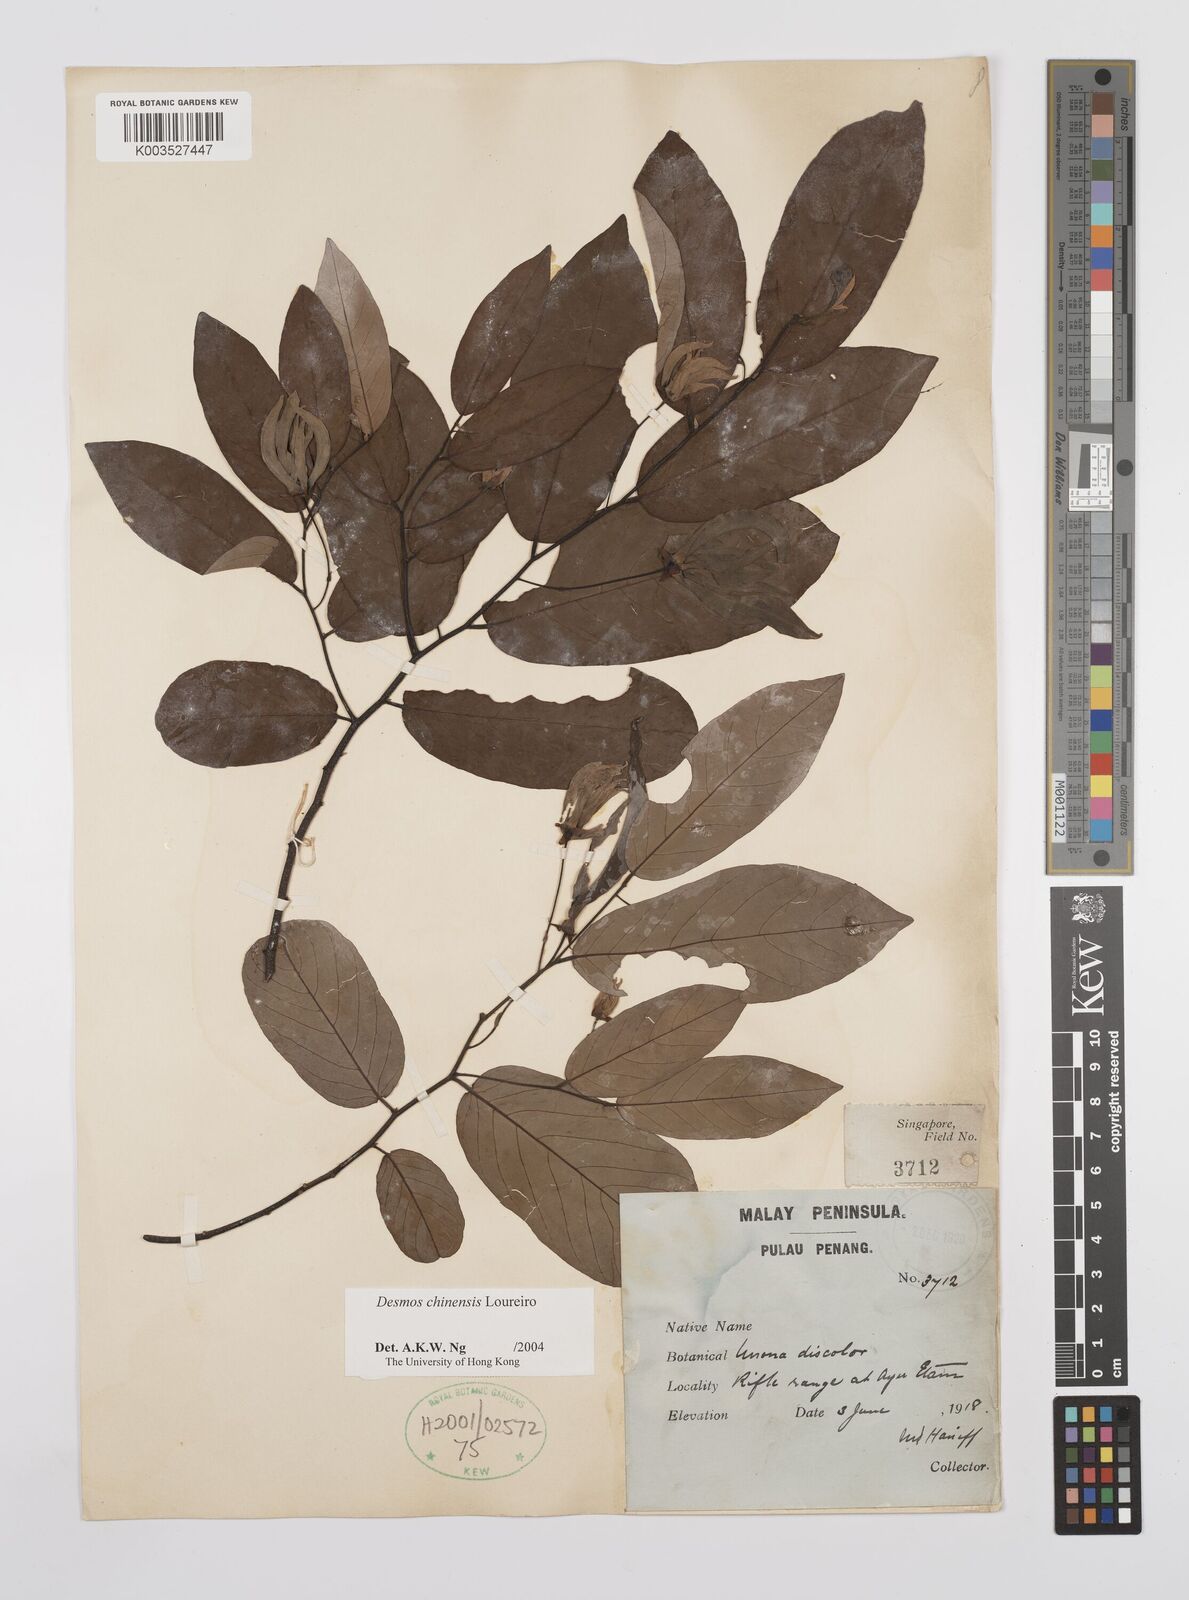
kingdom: Plantae
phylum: Tracheophyta
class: Magnoliopsida
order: Magnoliales
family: Annonaceae
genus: Desmos
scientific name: Desmos
